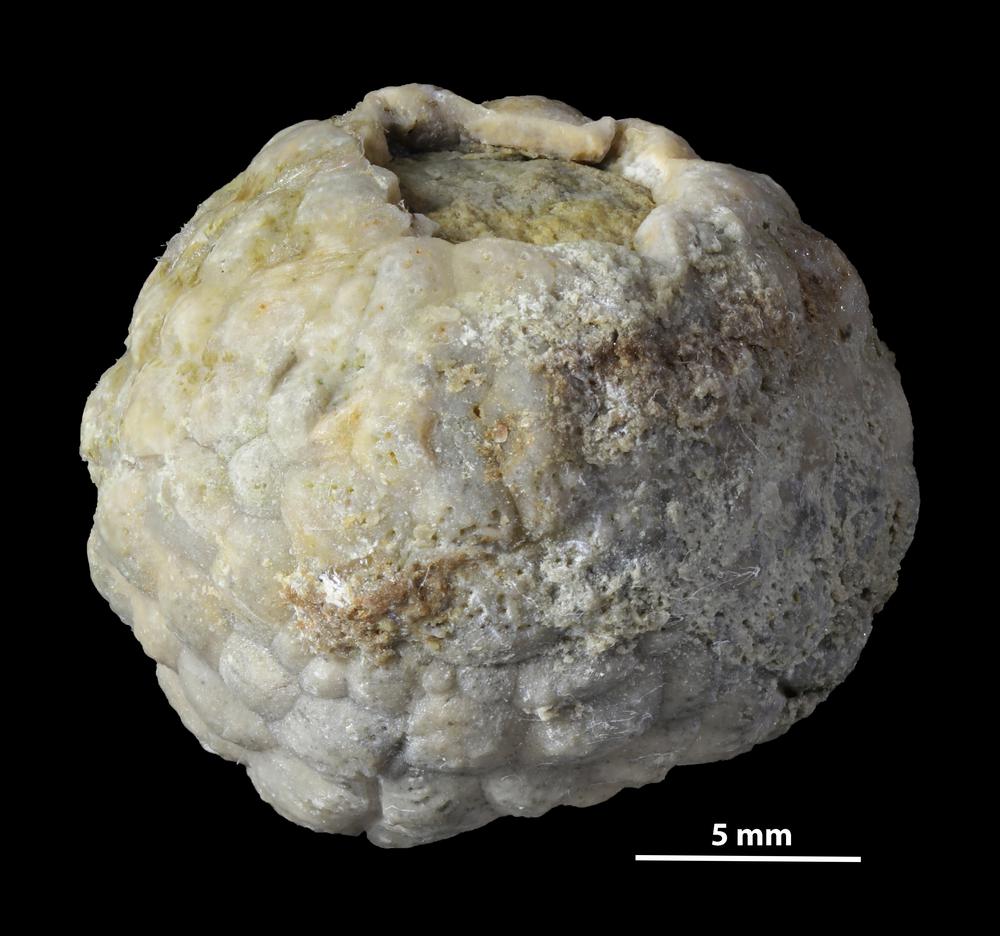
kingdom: Animalia
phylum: Echinodermata
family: Protocrinitidae
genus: Protocrinites
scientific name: Protocrinites oviformis
